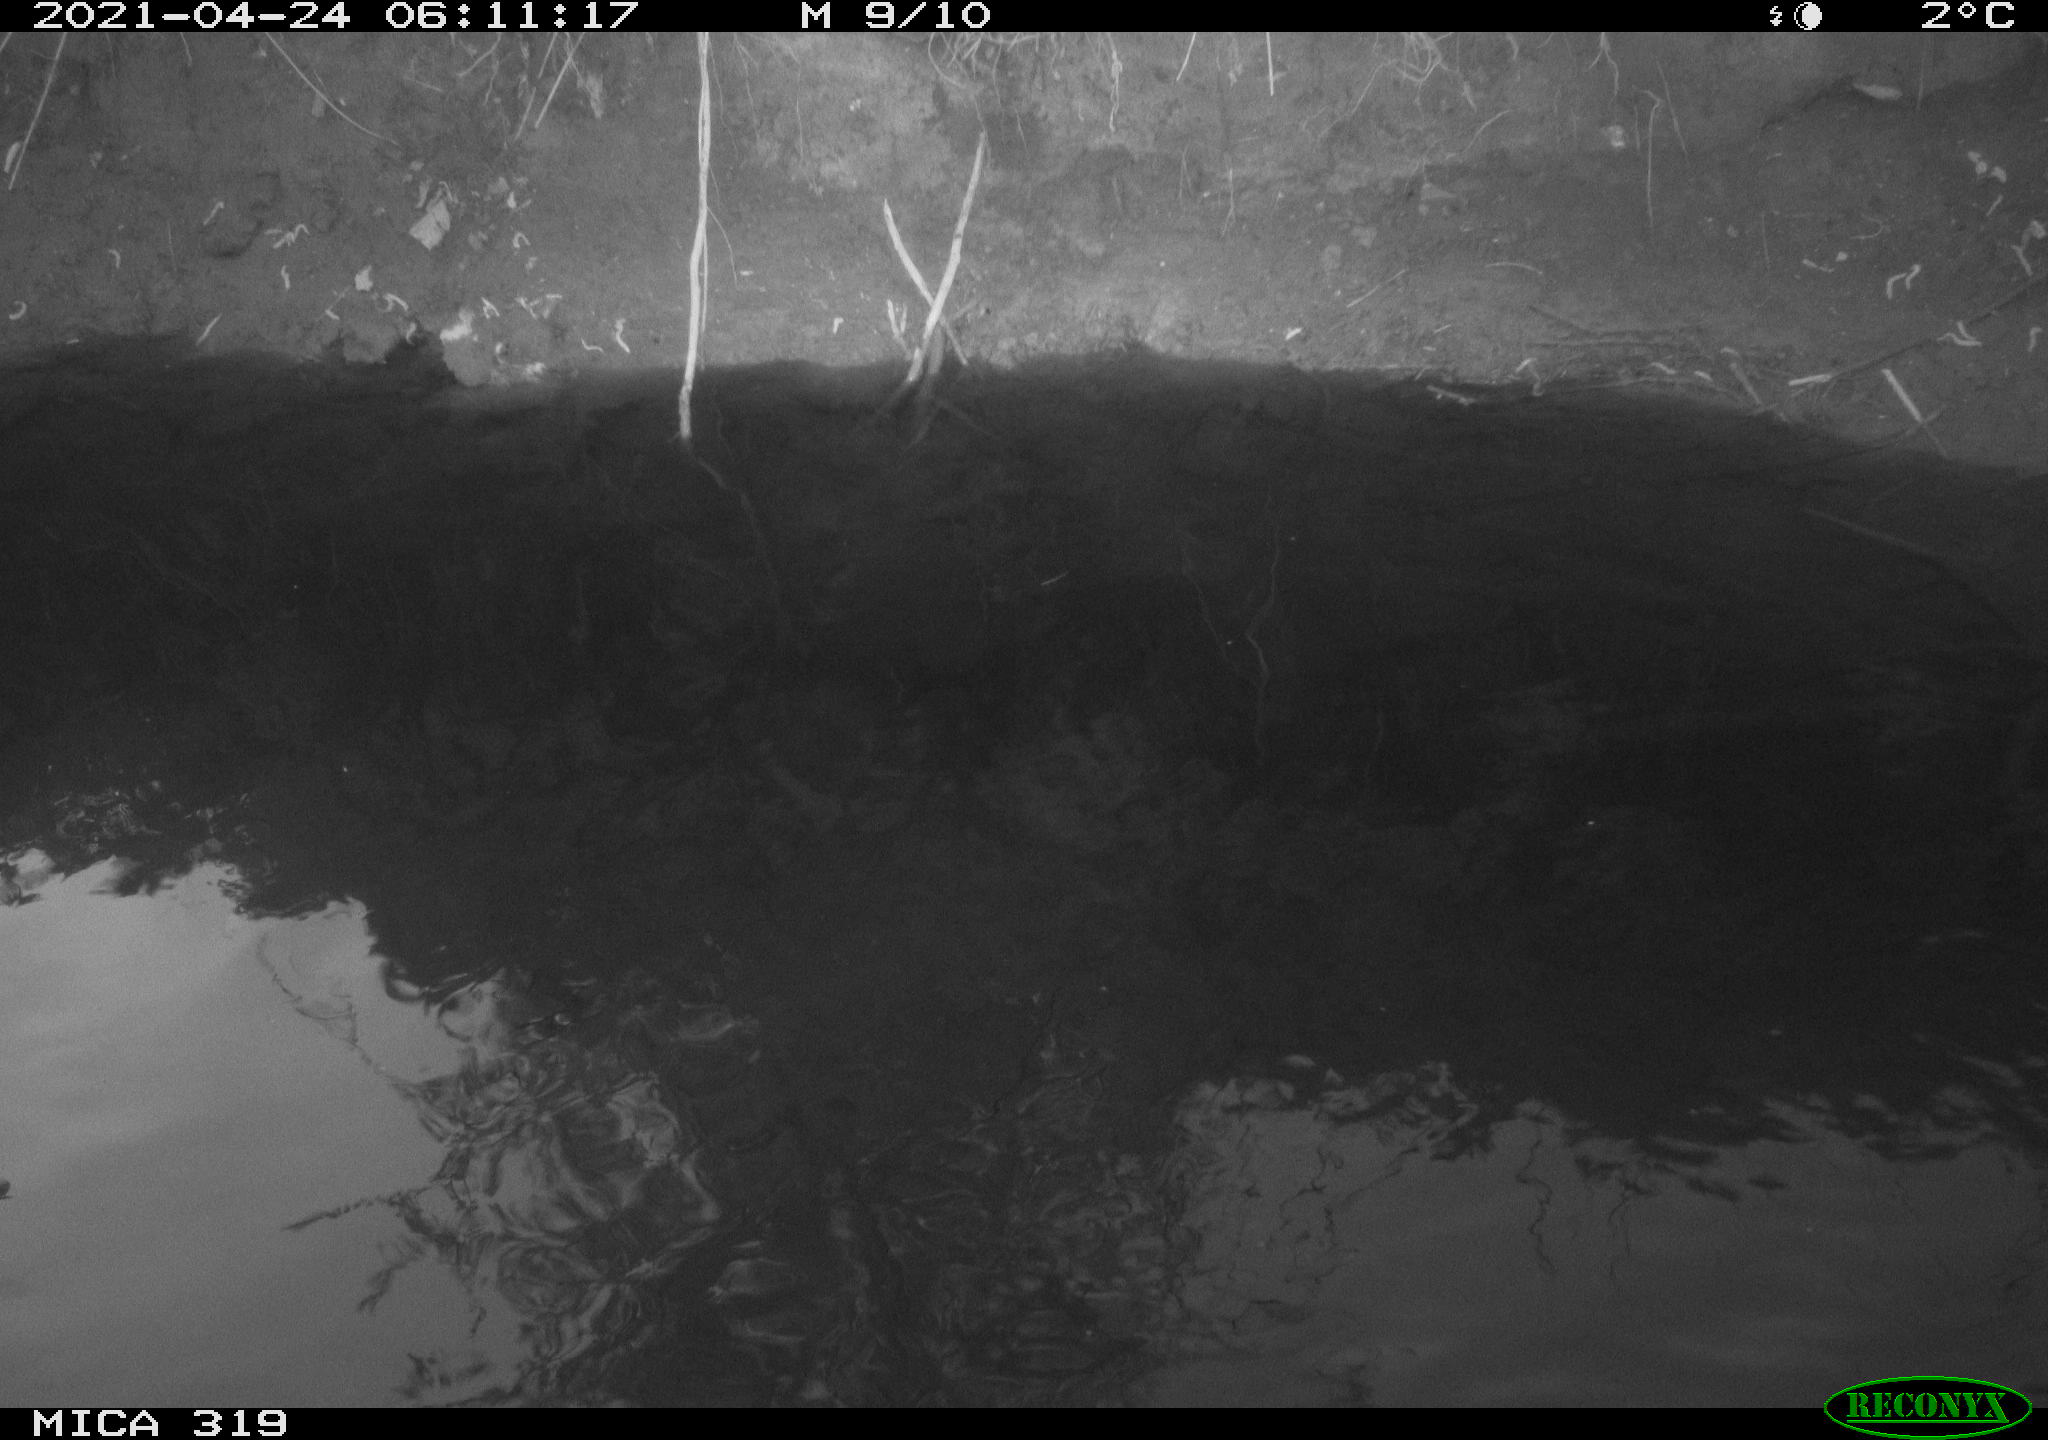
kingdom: Animalia
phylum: Chordata
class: Aves
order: Anseriformes
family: Anatidae
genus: Anas
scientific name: Anas platyrhynchos
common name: Mallard
